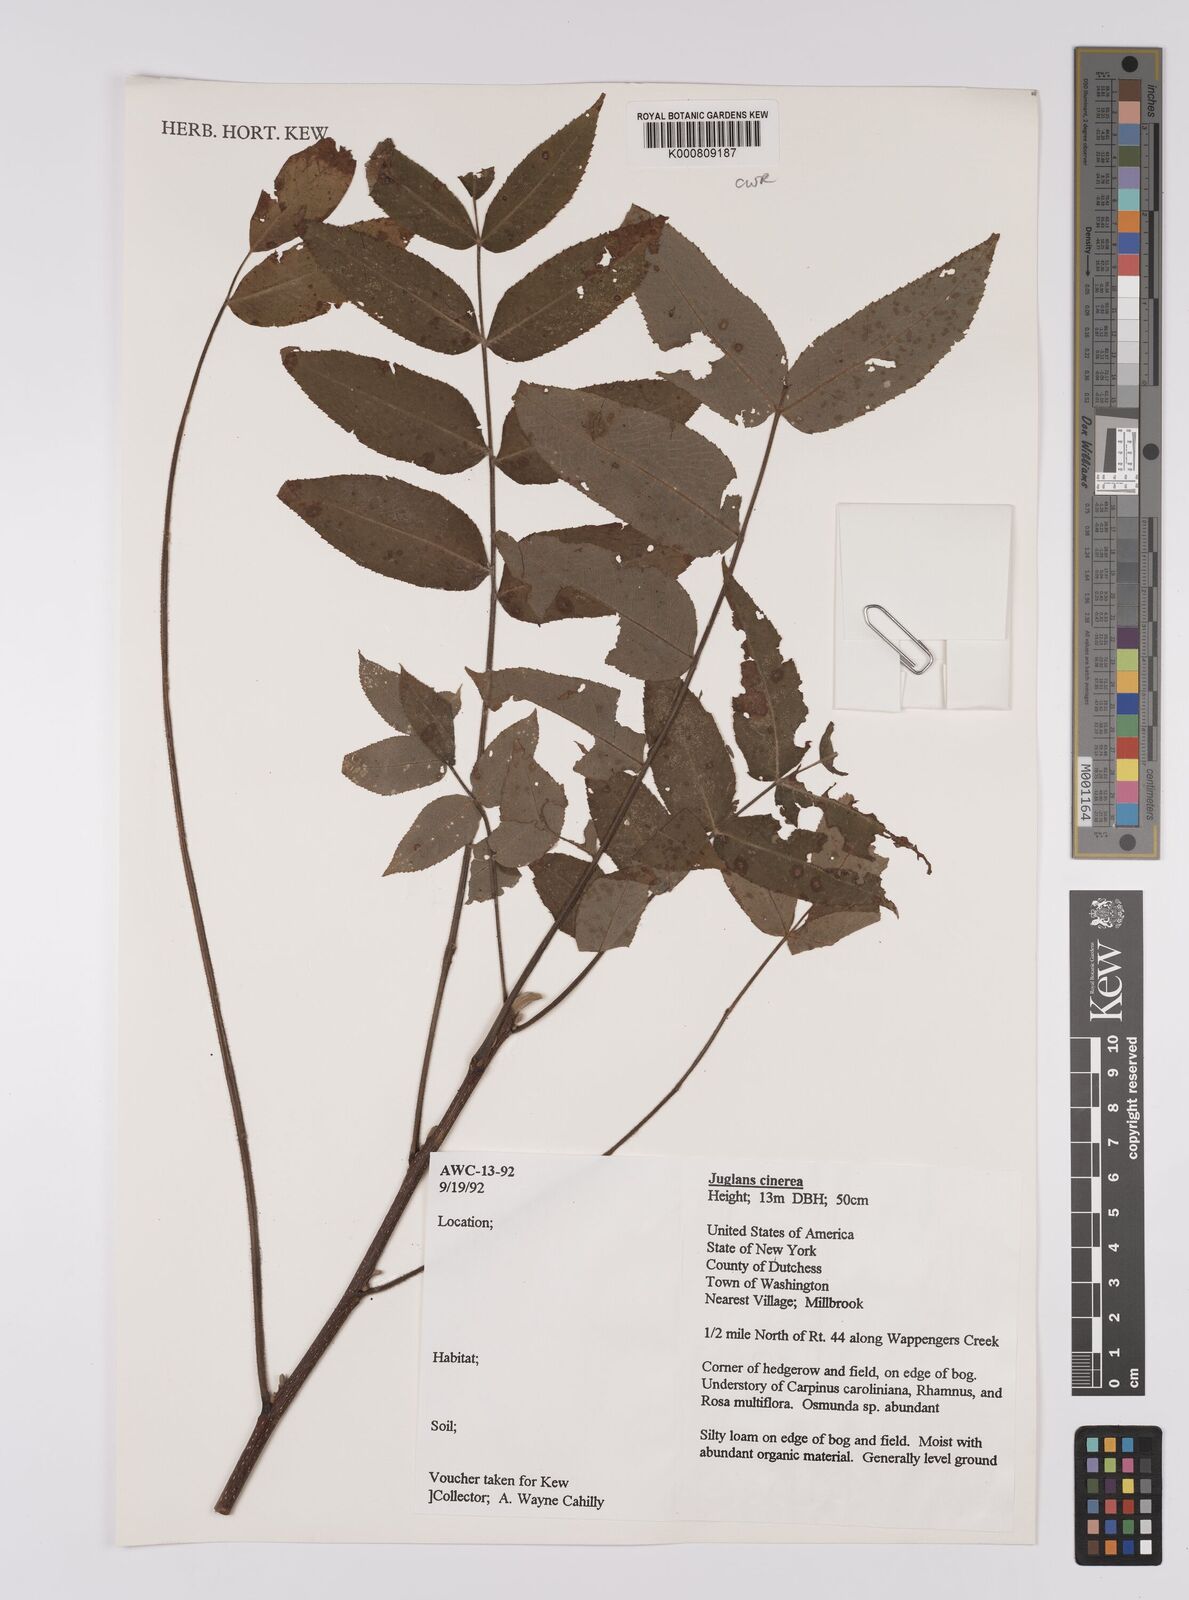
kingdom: Plantae
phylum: Tracheophyta
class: Magnoliopsida
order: Fagales
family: Juglandaceae
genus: Juglans
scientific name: Juglans cinerea
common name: Butternut
